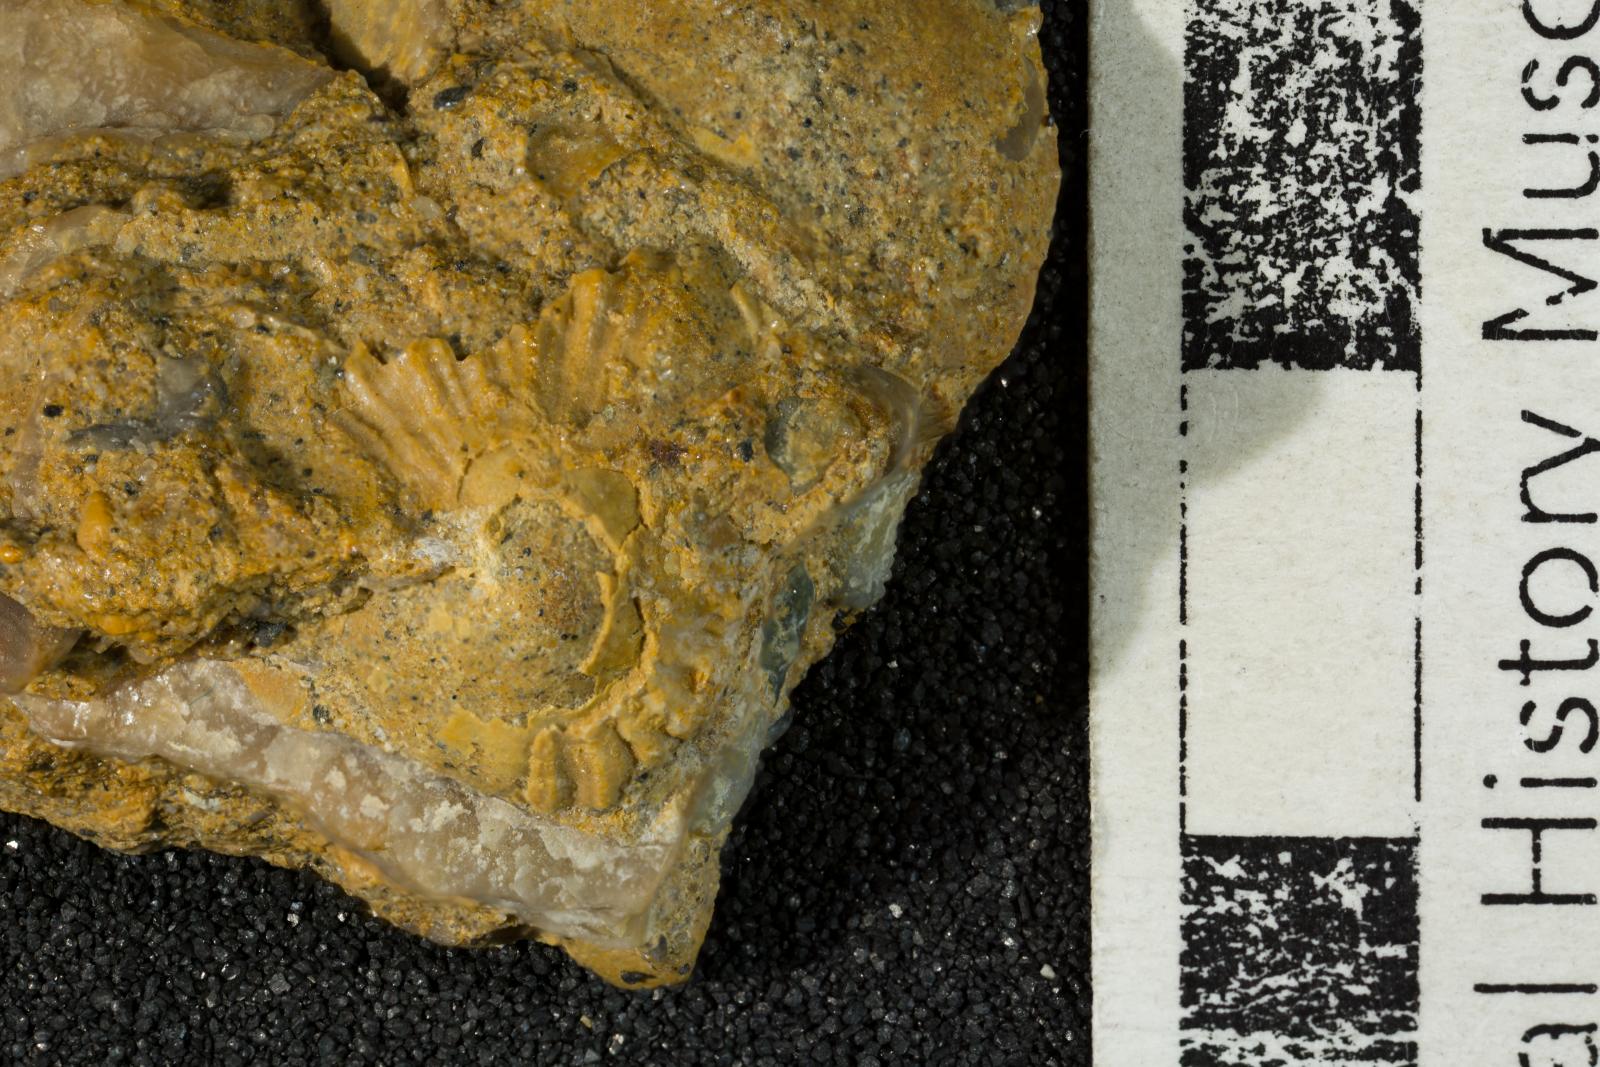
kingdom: Animalia
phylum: Mollusca
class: Gastropoda
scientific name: Gastropoda
